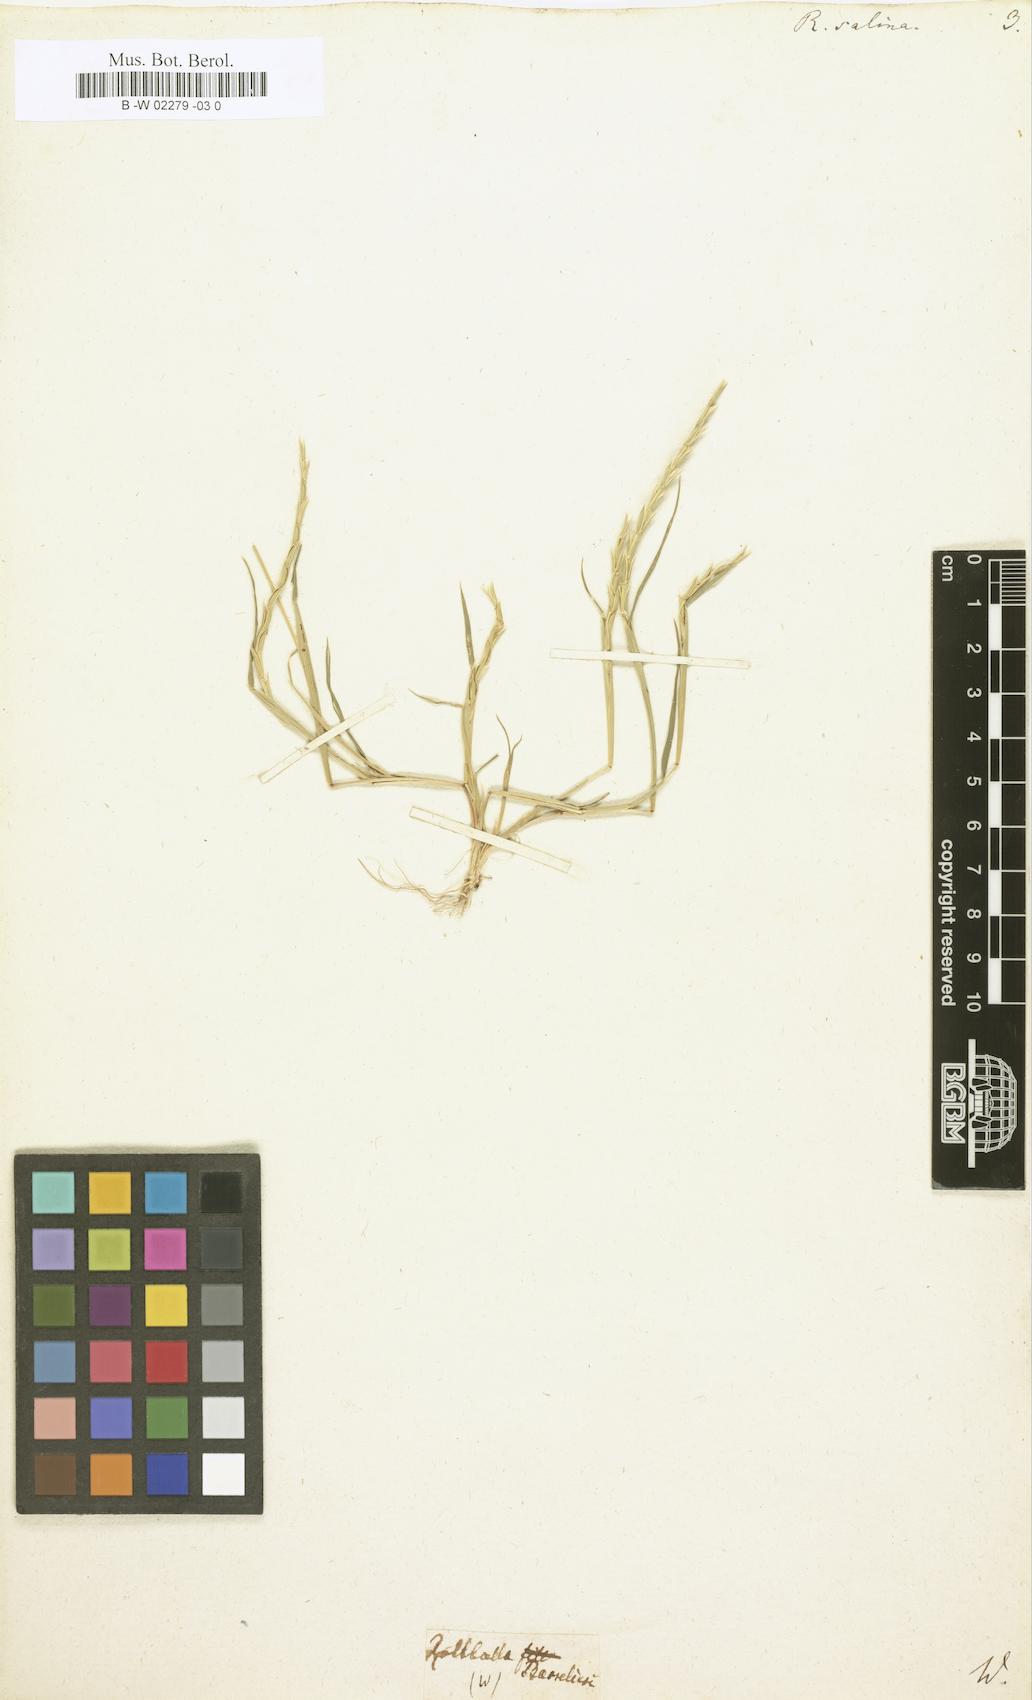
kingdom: Plantae
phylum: Tracheophyta
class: Liliopsida
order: Poales
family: Poaceae
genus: Pholiurus
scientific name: Pholiurus pannonicus
